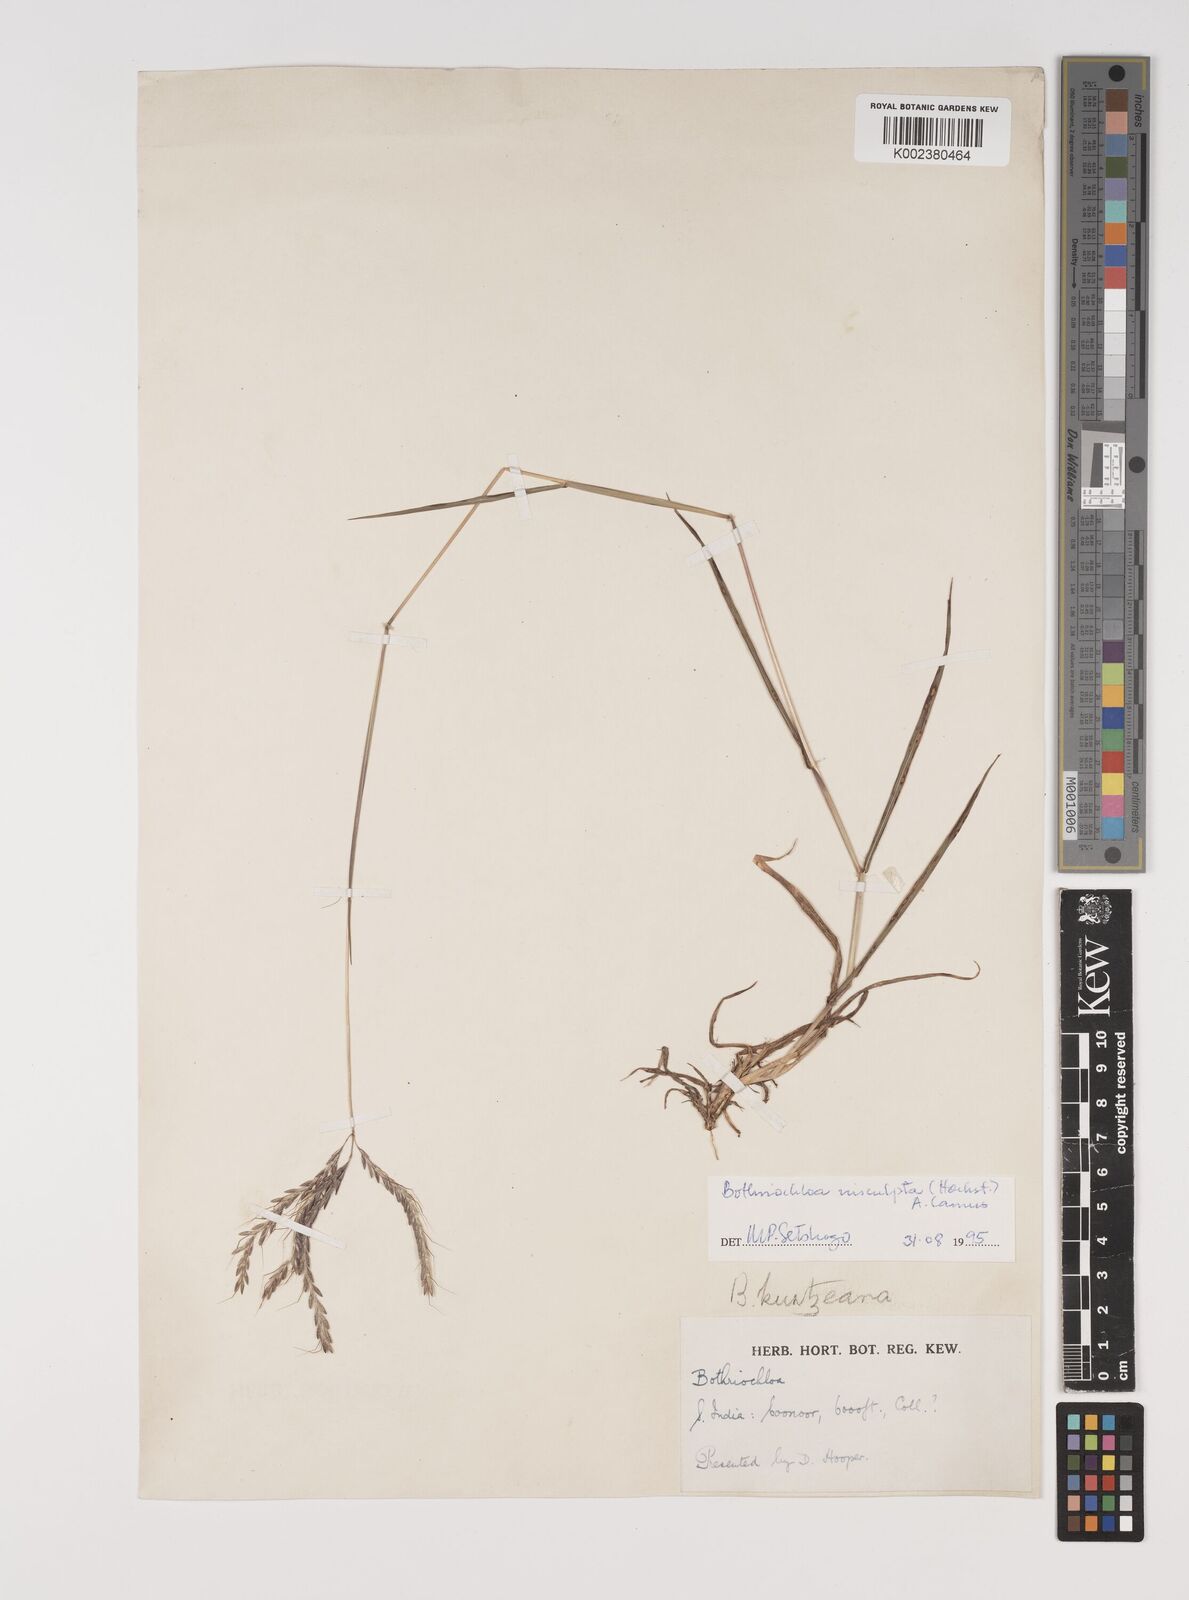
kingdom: Plantae
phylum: Tracheophyta
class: Liliopsida
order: Poales
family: Poaceae
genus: Bothriochloa
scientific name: Bothriochloa insculpta
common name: Creeping-bluegrass
